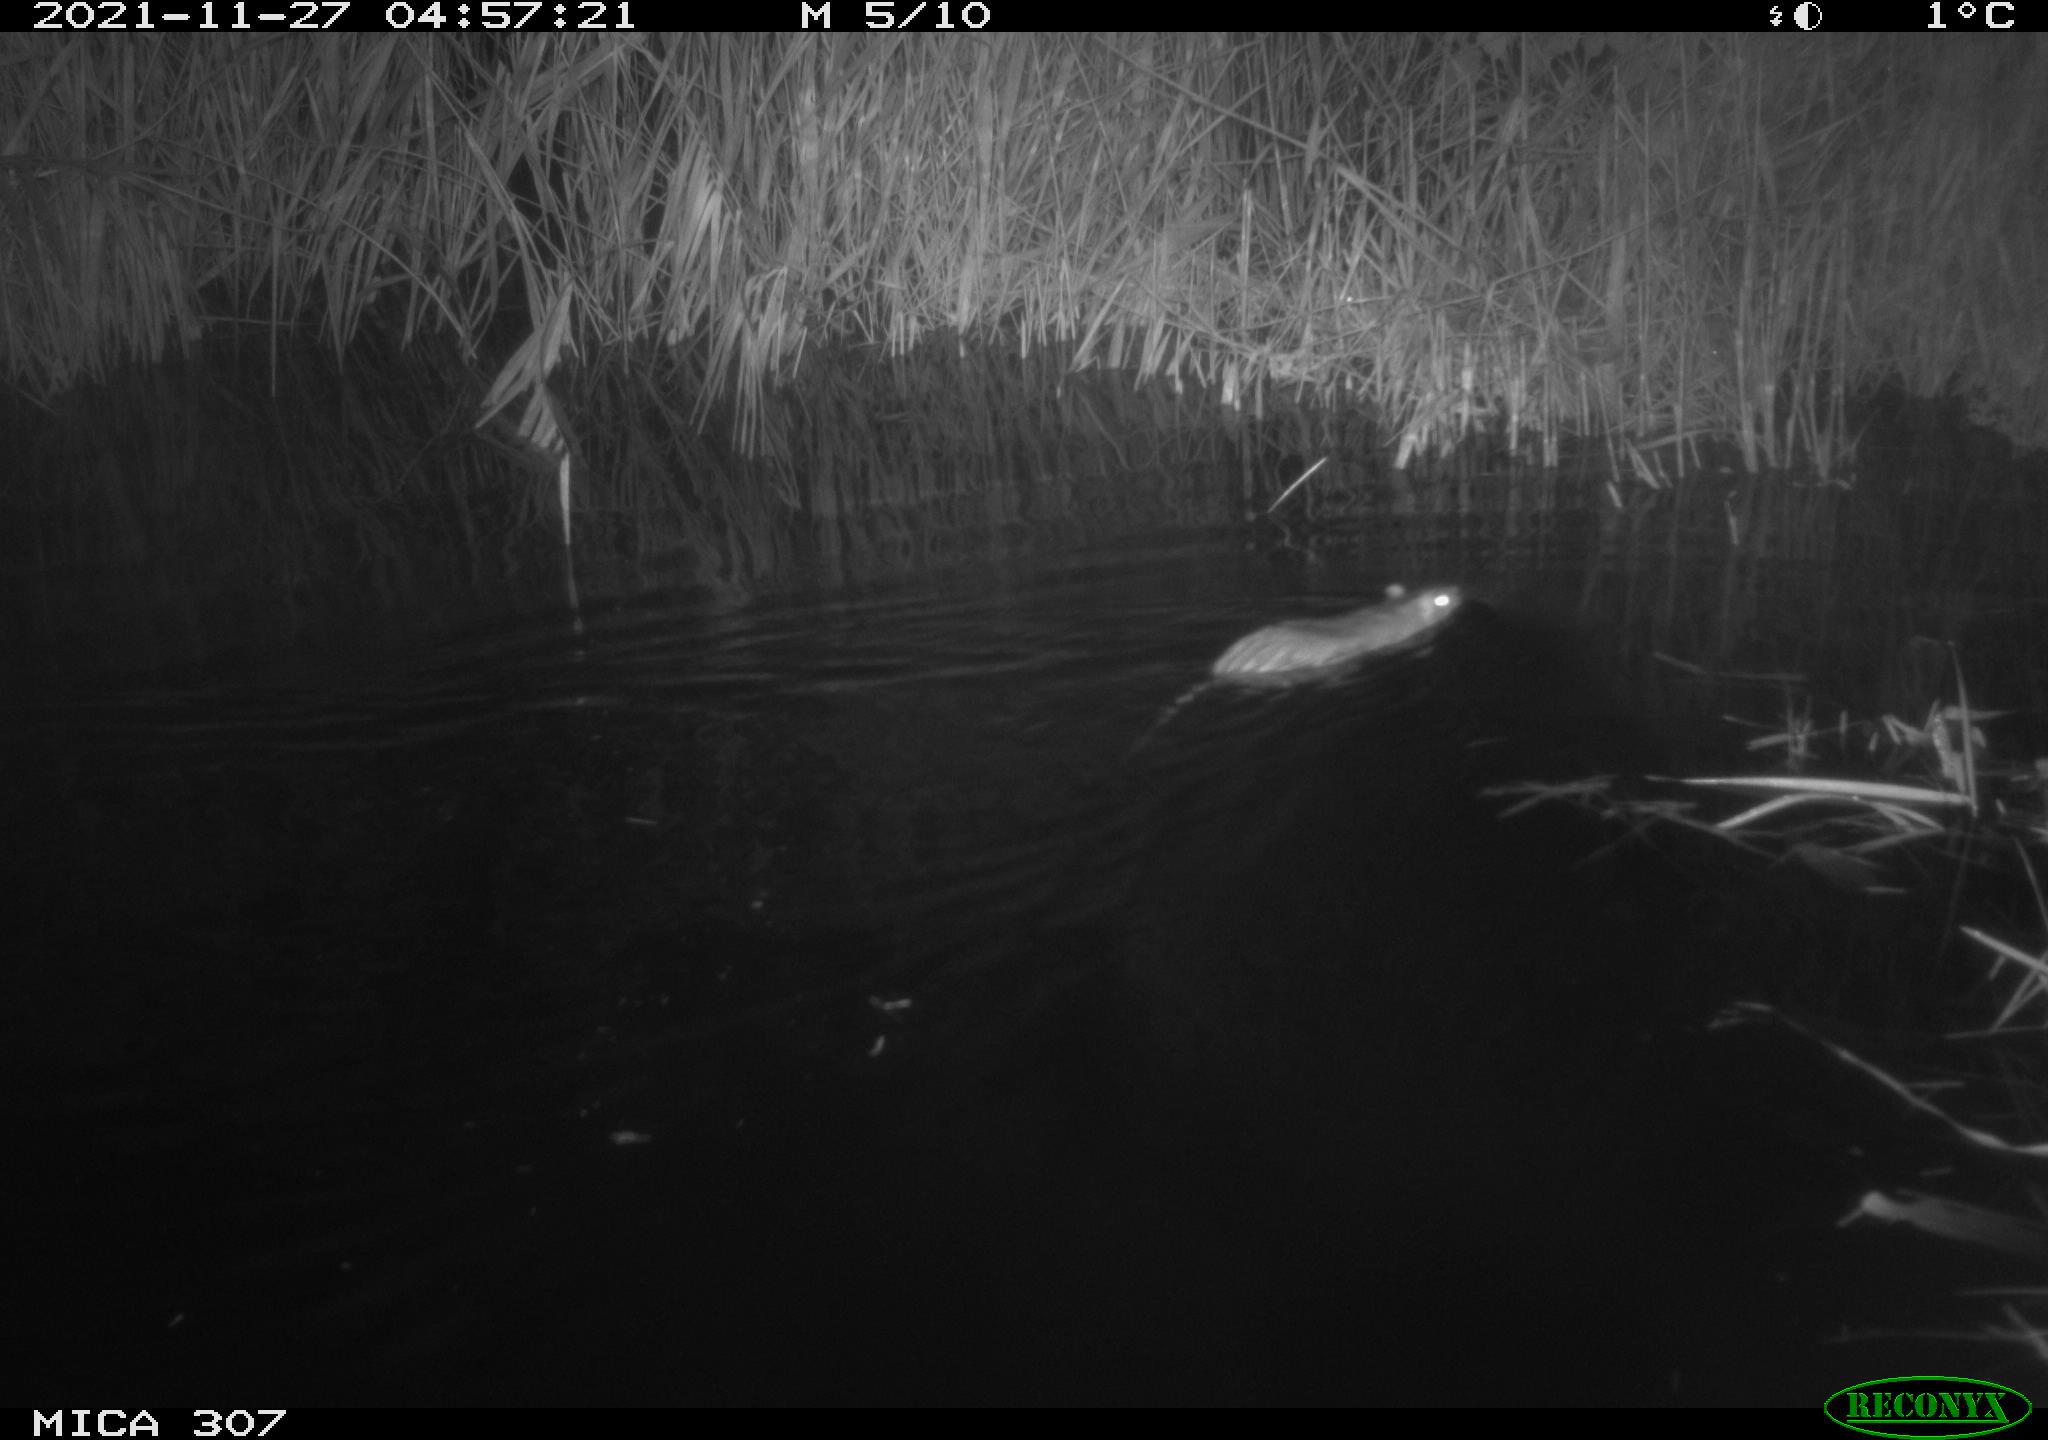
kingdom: Animalia
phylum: Chordata
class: Mammalia
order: Rodentia
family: Muridae
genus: Rattus
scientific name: Rattus norvegicus
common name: Brown rat
